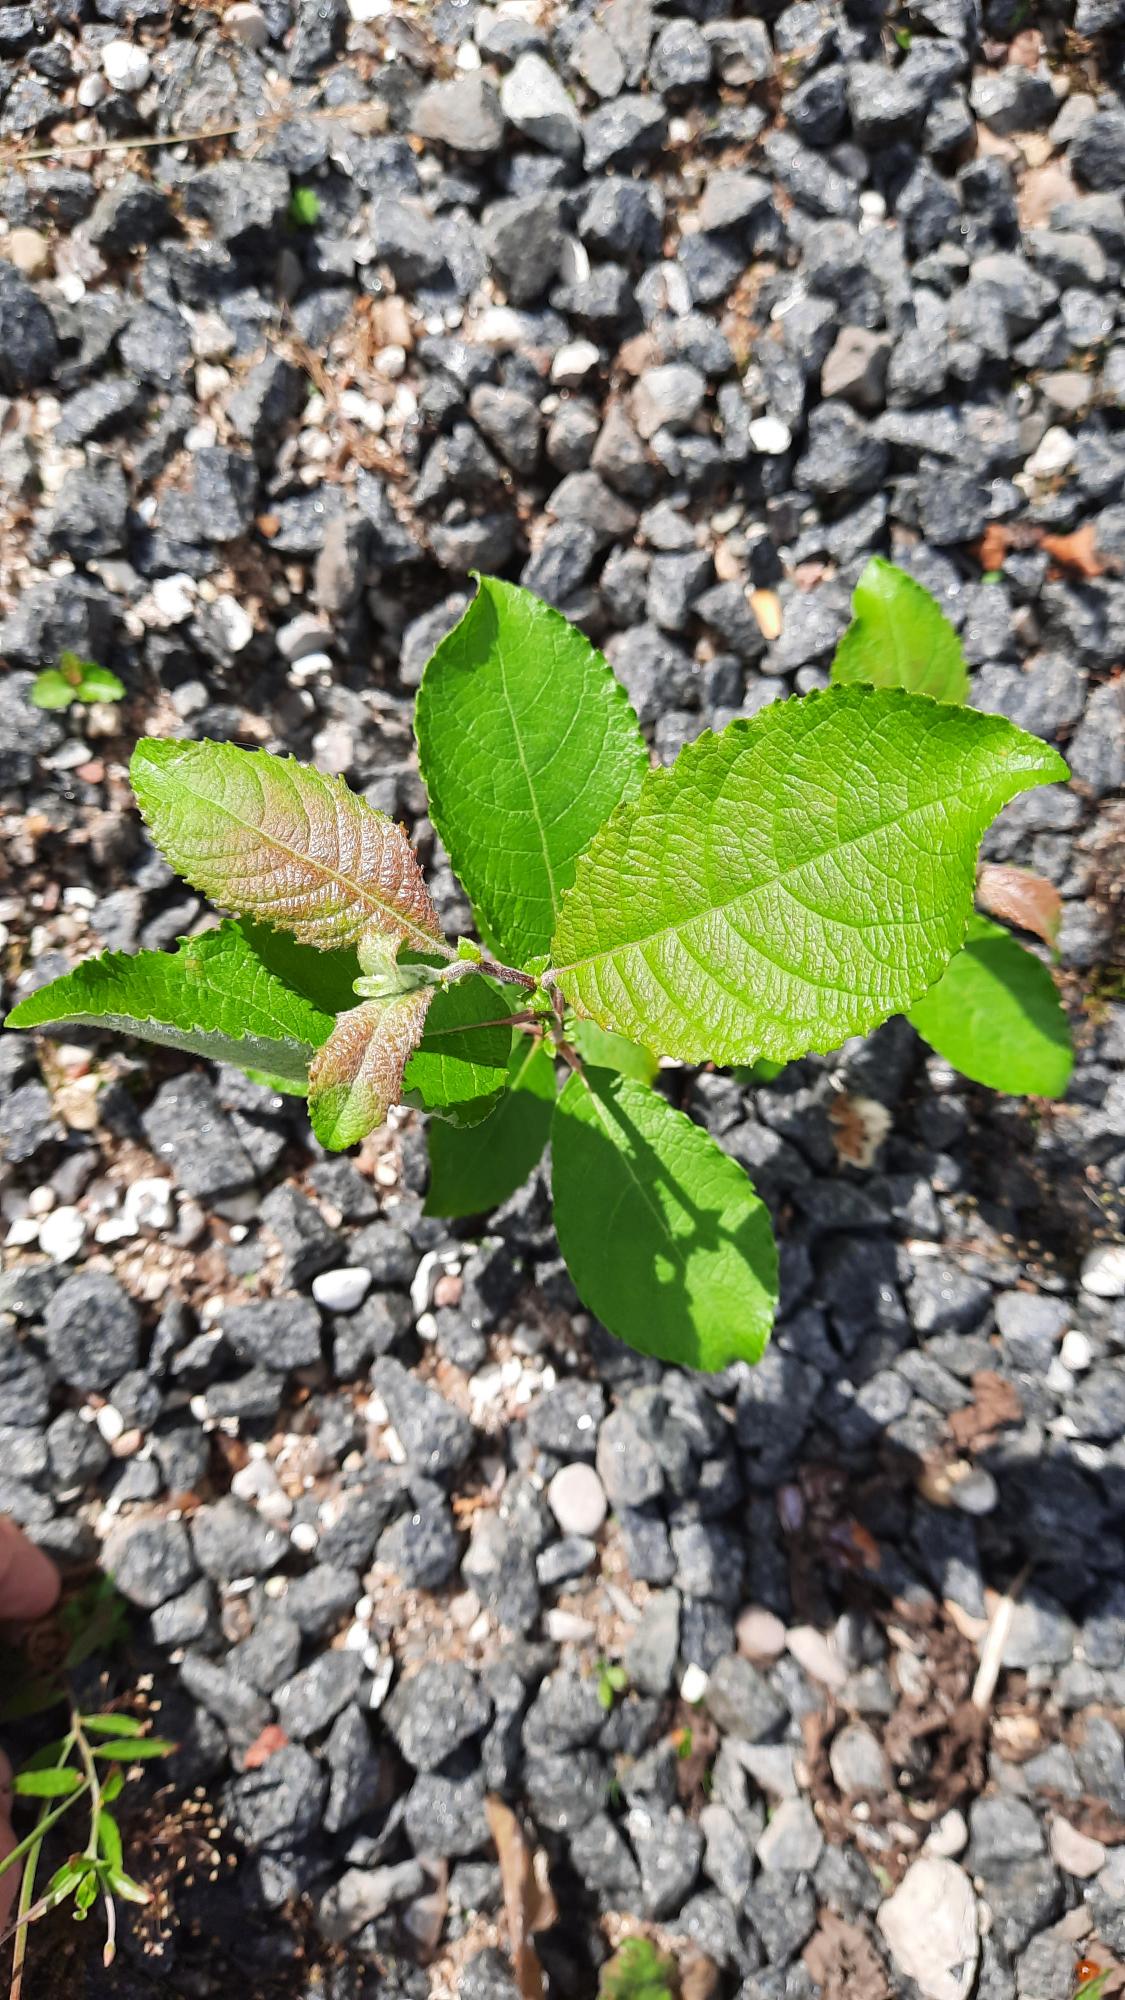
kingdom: Plantae
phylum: Tracheophyta
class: Magnoliopsida
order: Malpighiales
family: Salicaceae
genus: Salix
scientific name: Salix caprea
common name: Selje-pil
